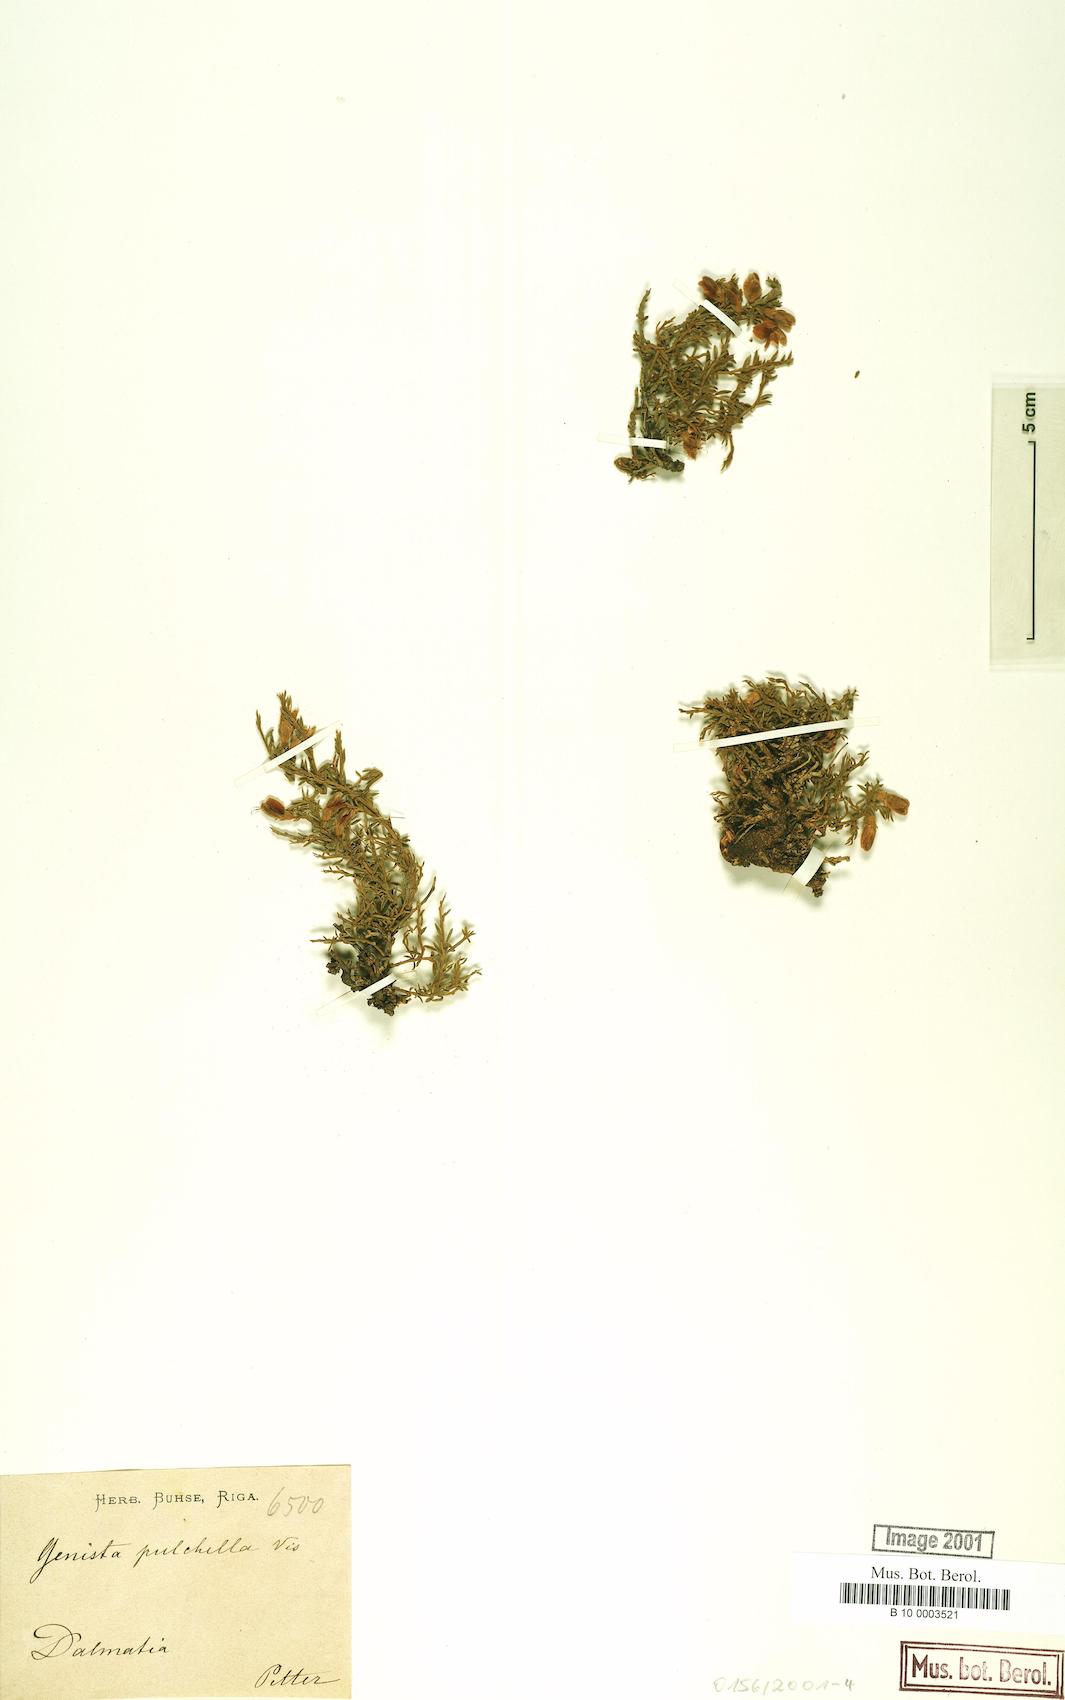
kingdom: Plantae
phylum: Tracheophyta
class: Magnoliopsida
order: Fabales
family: Fabaceae
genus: Genista
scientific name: Genista pulchella
